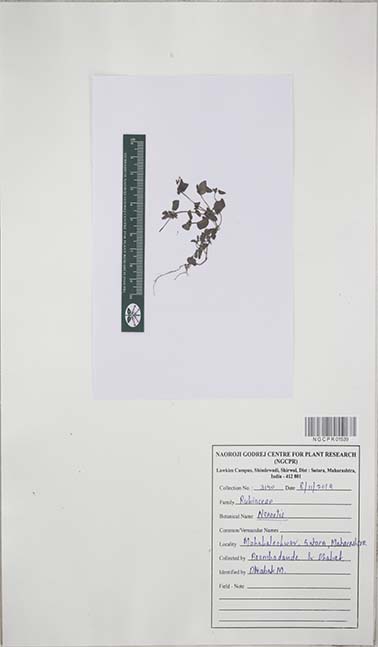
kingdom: Plantae
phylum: Tracheophyta
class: Magnoliopsida
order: Gentianales
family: Rubiaceae
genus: Neanotis
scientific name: Neanotis
